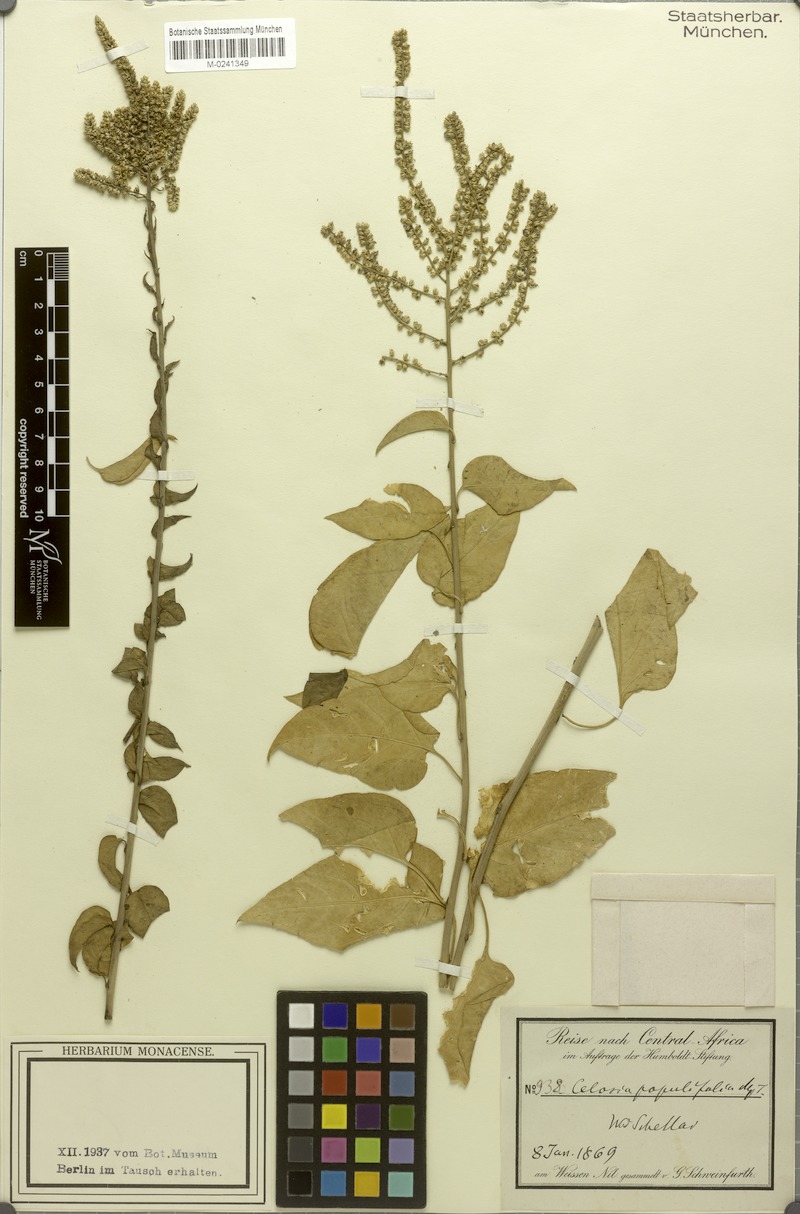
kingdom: Plantae
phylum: Tracheophyta
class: Magnoliopsida
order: Caryophyllales
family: Amaranthaceae
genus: Celosia
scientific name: Celosia polystachya
